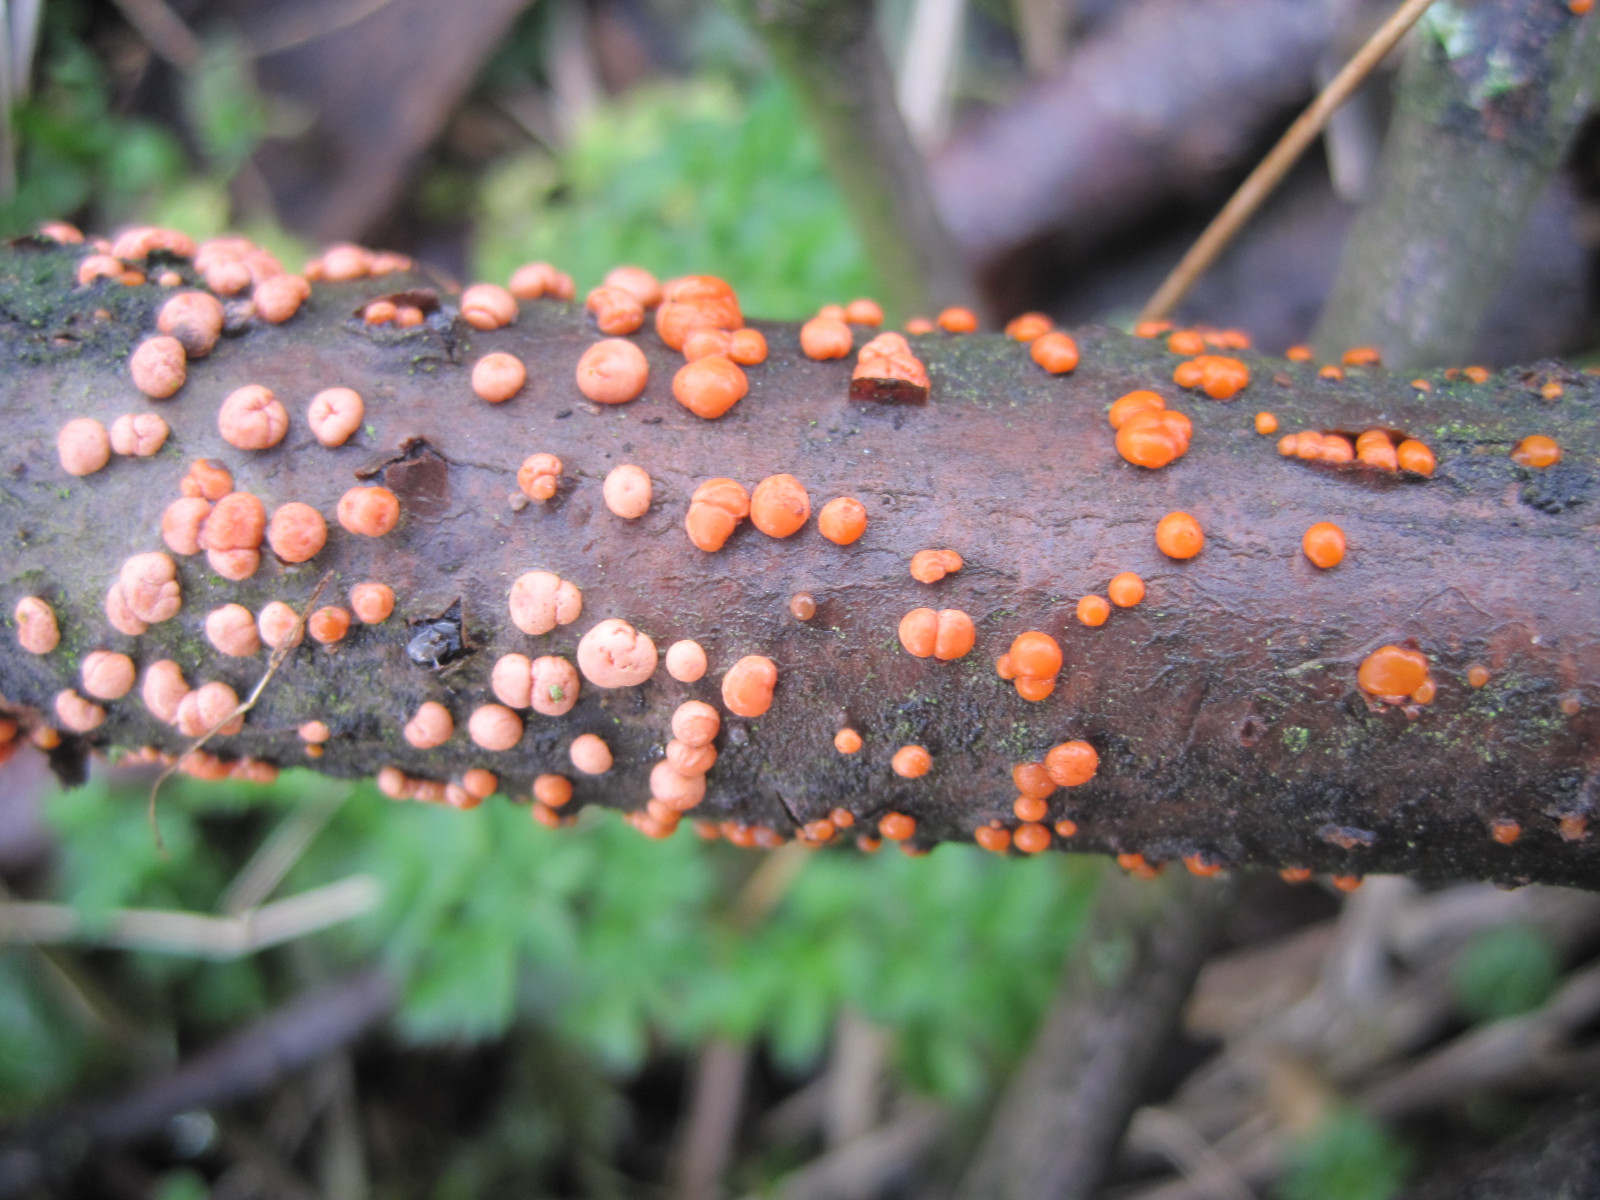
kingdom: Fungi
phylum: Ascomycota
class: Sordariomycetes
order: Hypocreales
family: Nectriaceae
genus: Nectria
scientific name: Nectria cinnabarina
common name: almindelig cinnobersvamp
